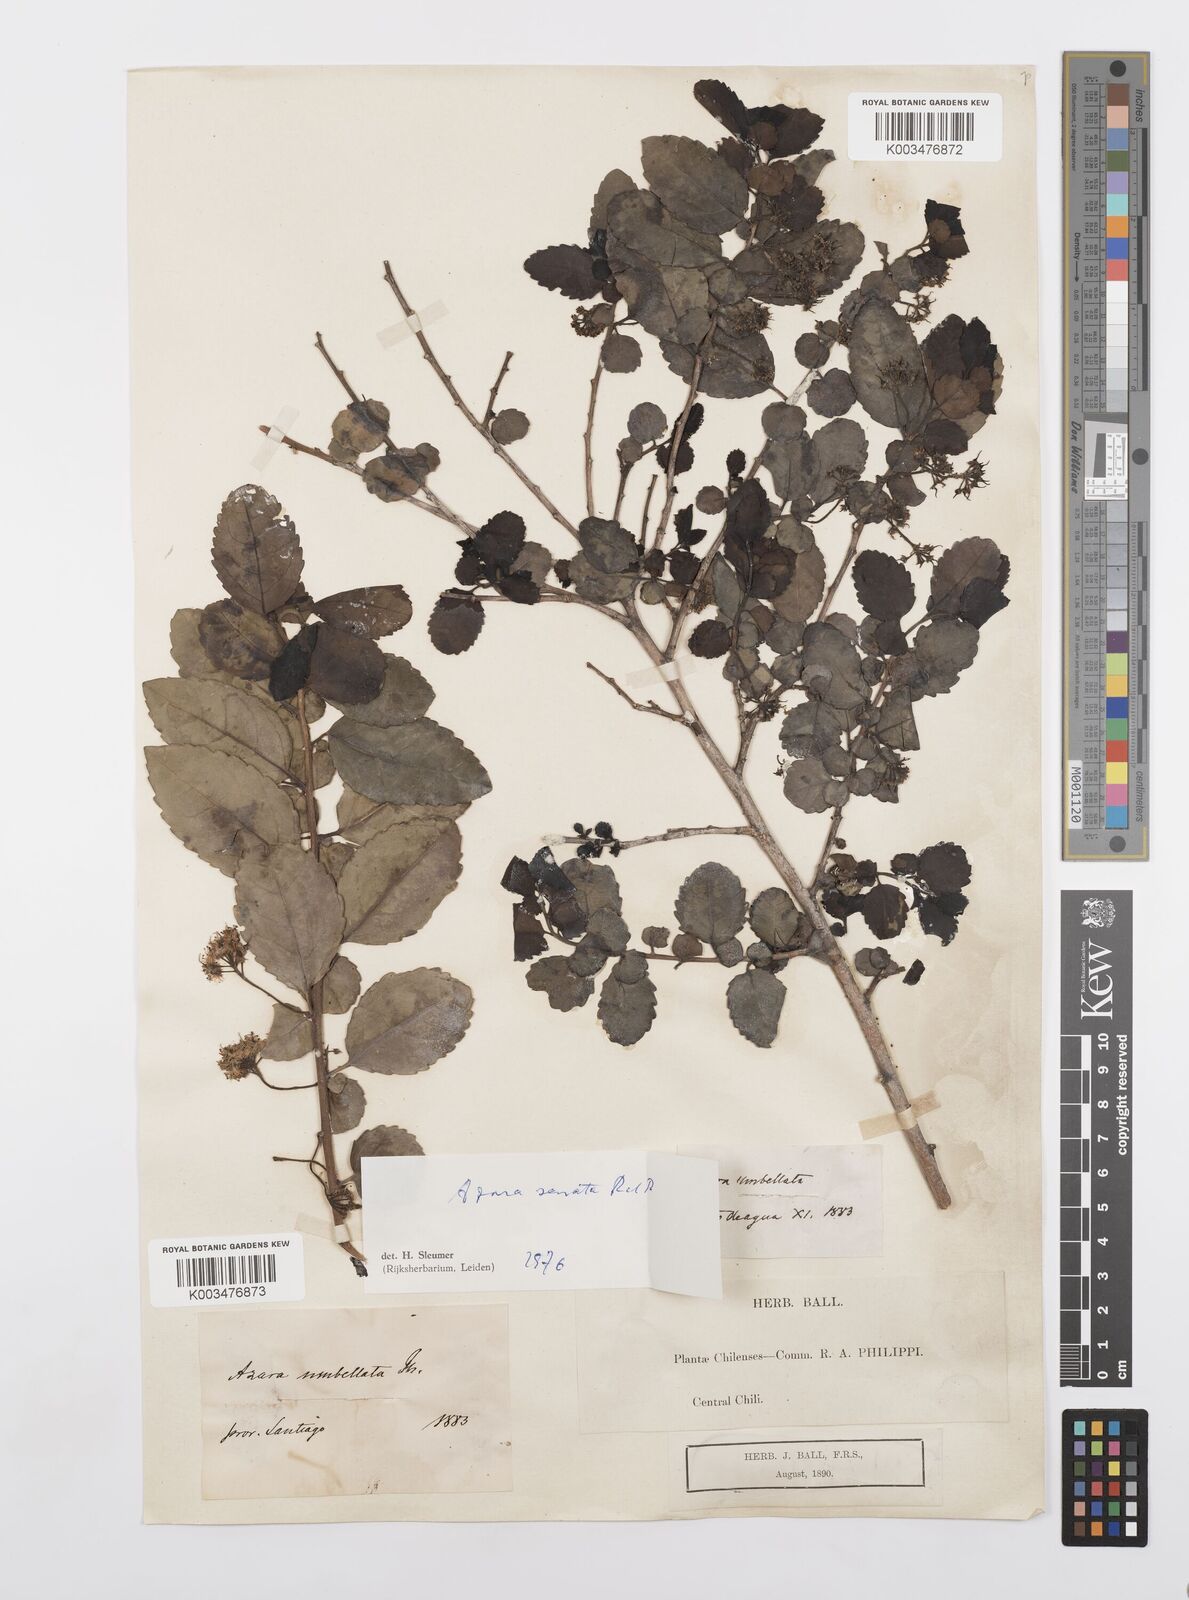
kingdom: Plantae
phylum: Tracheophyta
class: Magnoliopsida
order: Malpighiales
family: Salicaceae
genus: Azara
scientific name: Azara serrata
